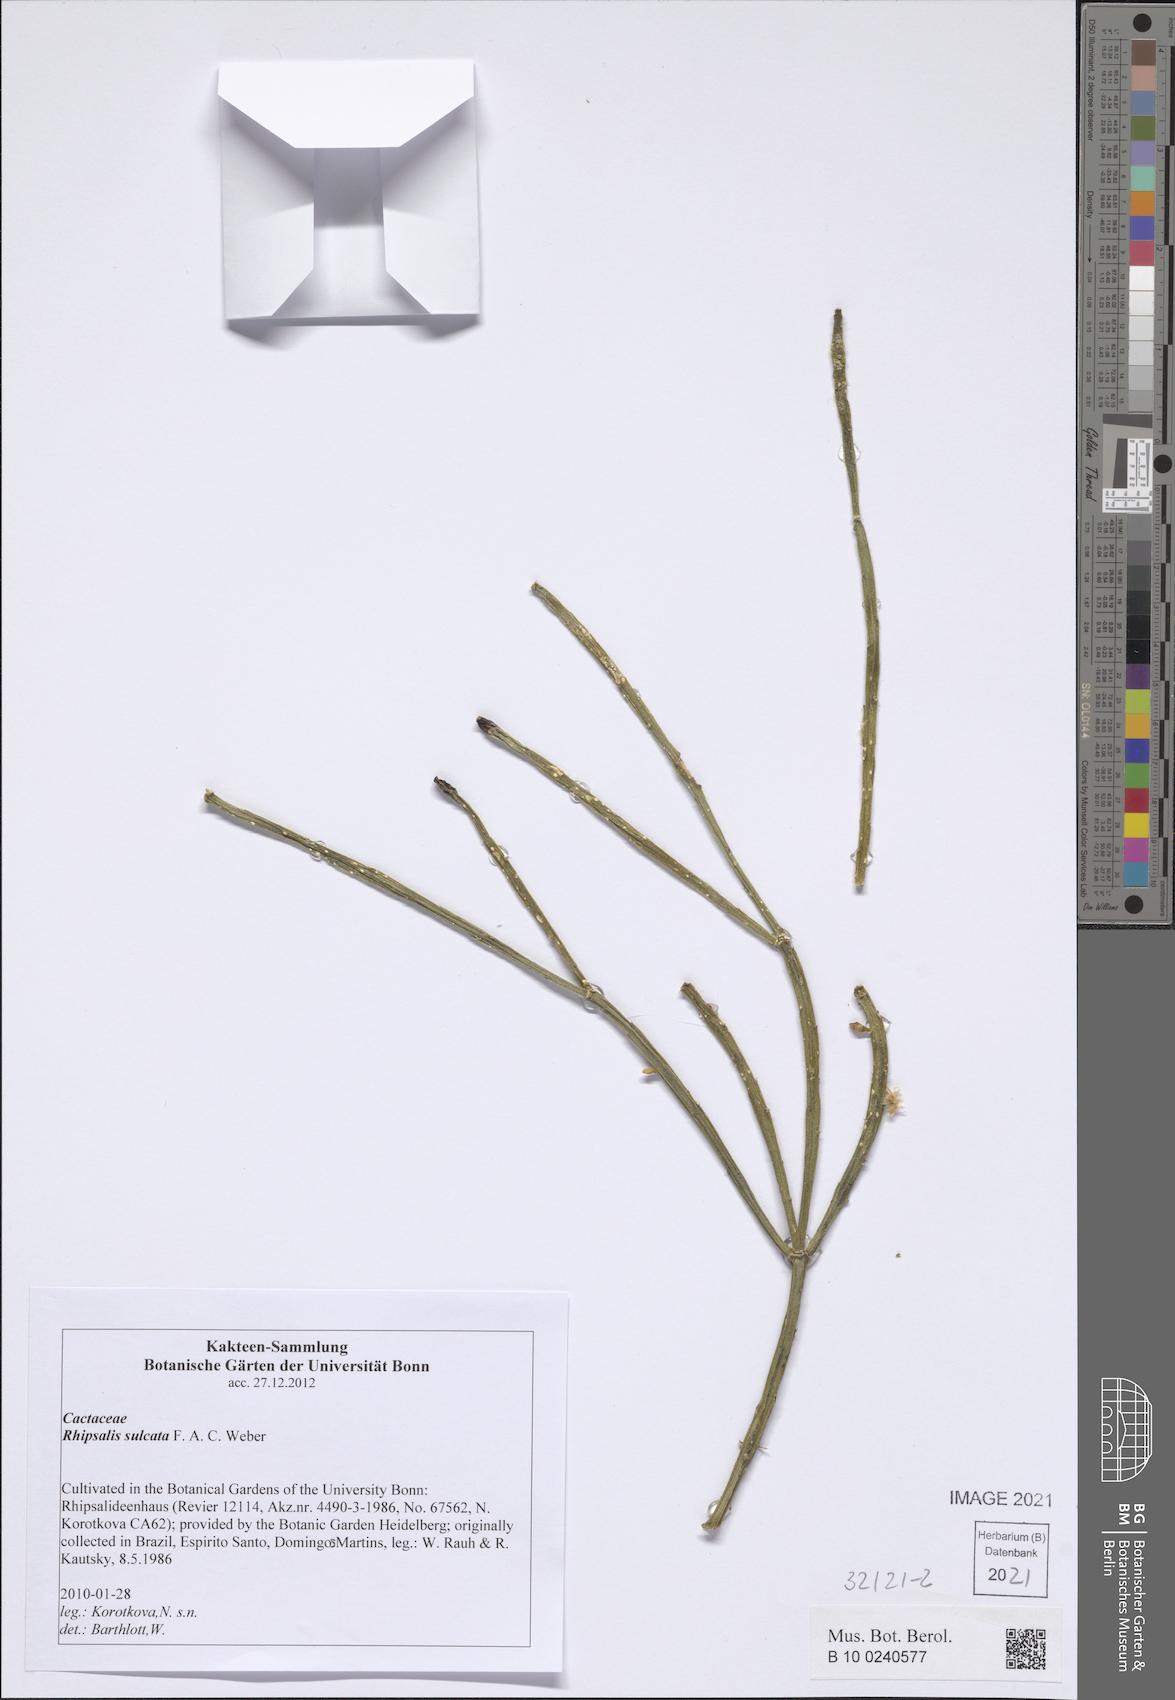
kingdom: Plantae
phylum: Tracheophyta
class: Magnoliopsida
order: Caryophyllales
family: Cactaceae
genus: Rhipsalis
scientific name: Rhipsalis sulcata
